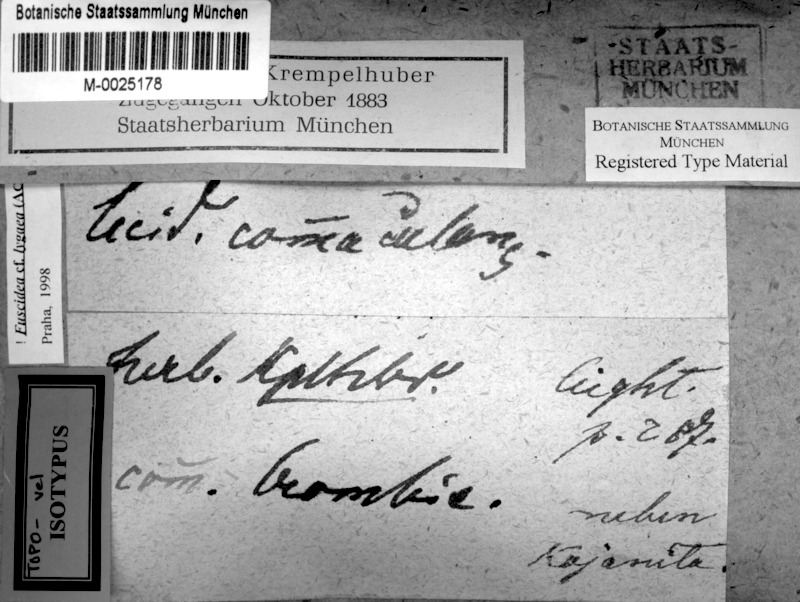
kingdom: Fungi
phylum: Ascomycota
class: Lecanoromycetes
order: Caliciales
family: Caliciaceae
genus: Amandinea
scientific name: Amandinea pelidna
